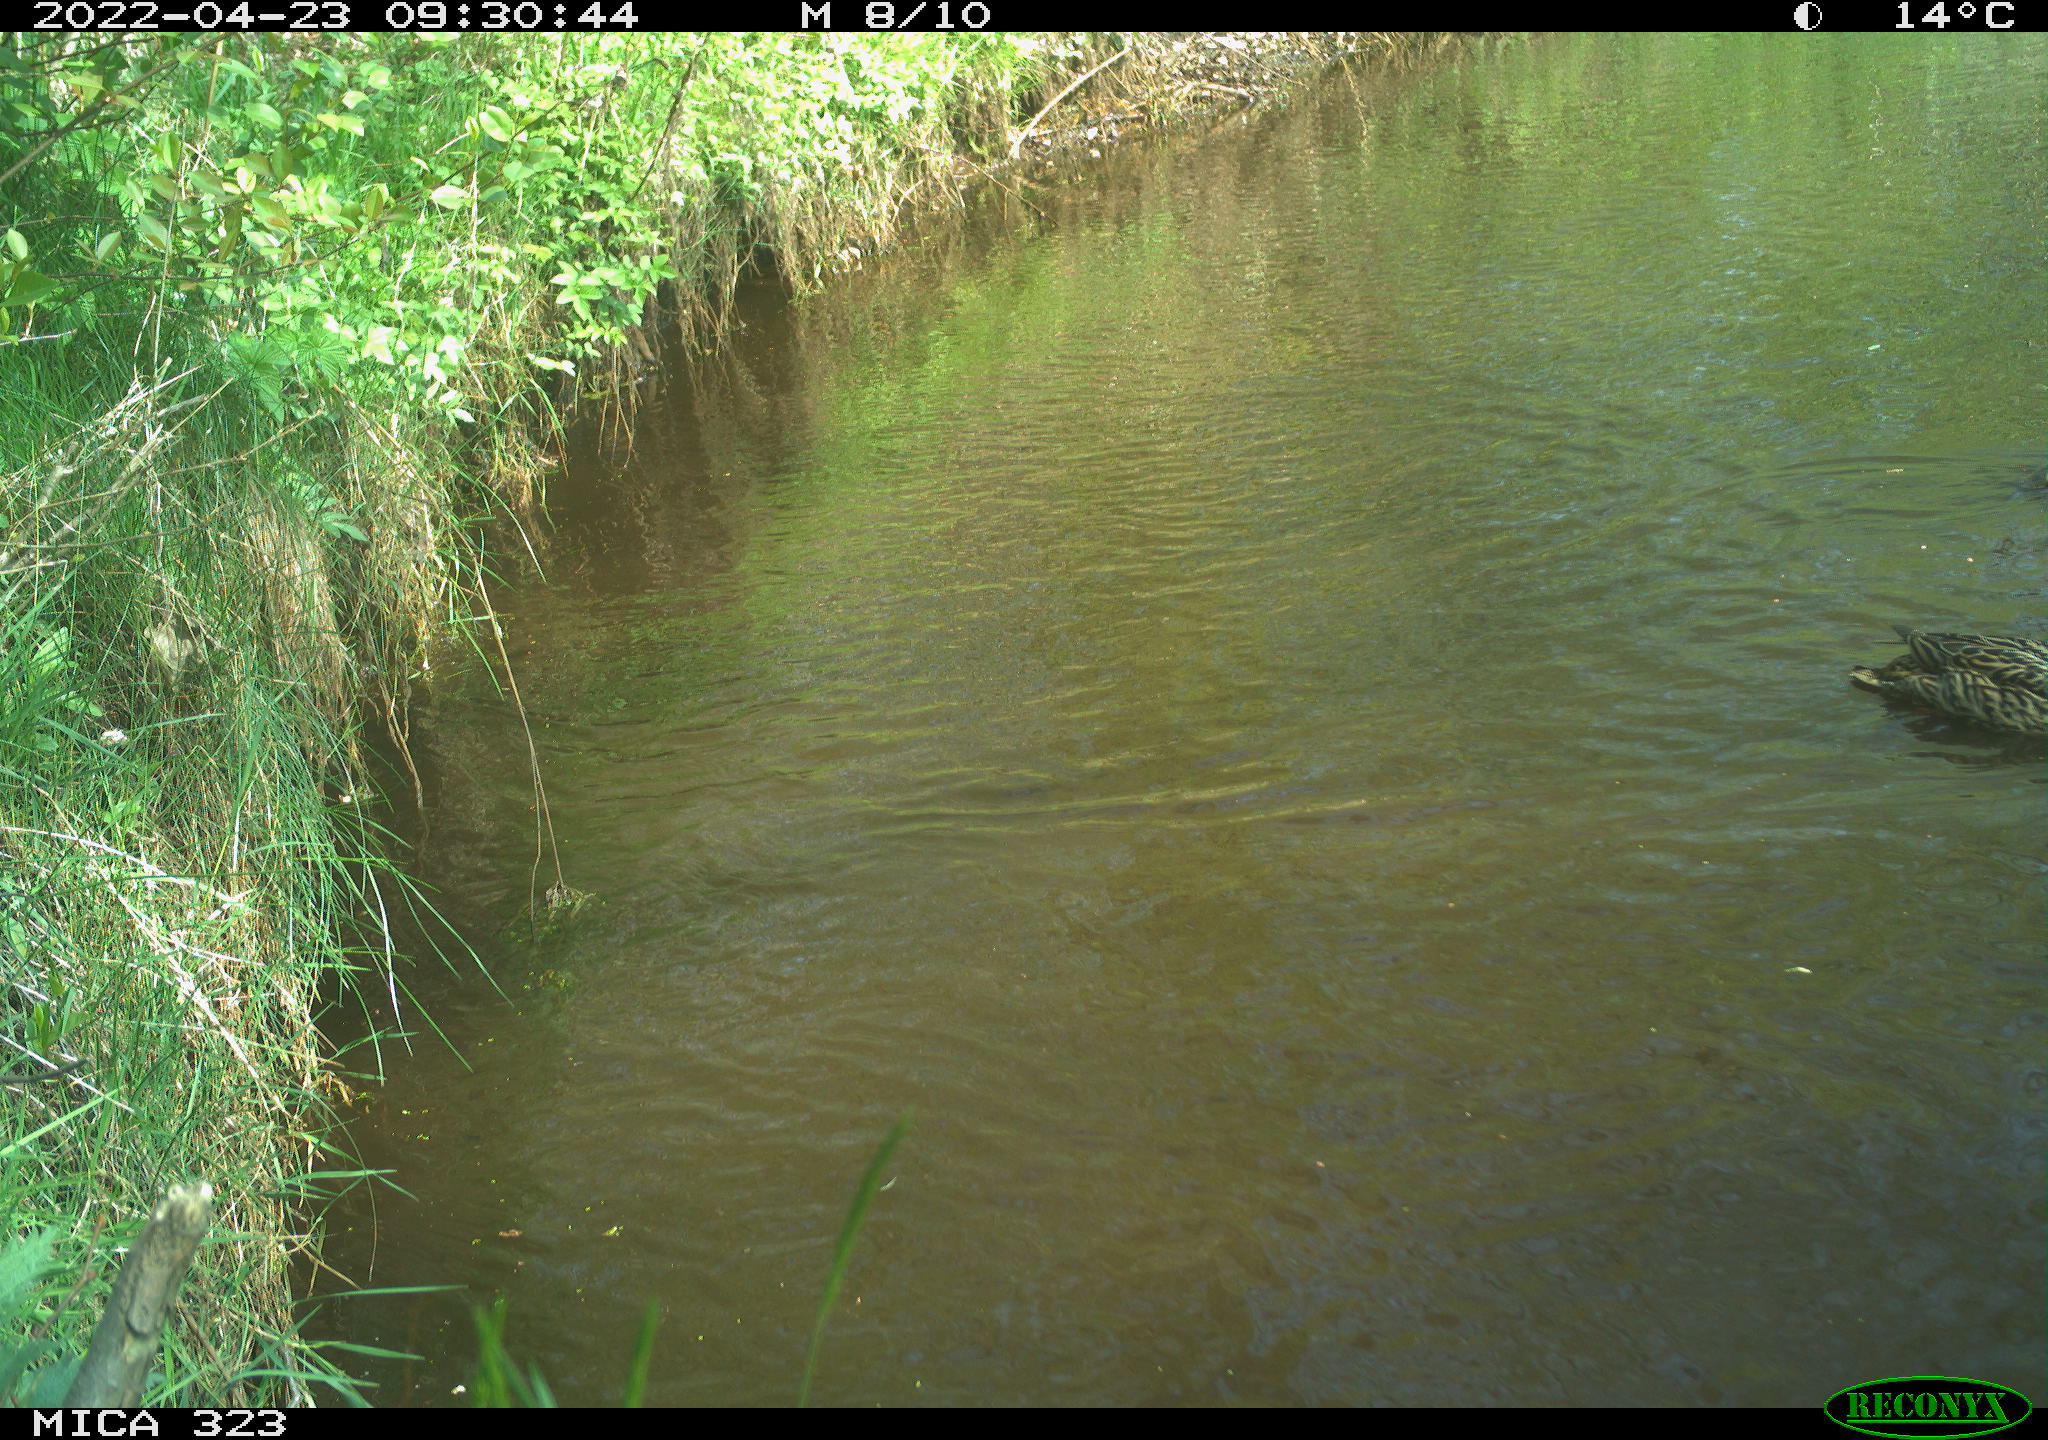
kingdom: Animalia
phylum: Chordata
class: Aves
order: Anseriformes
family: Anatidae
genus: Anas
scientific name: Anas platyrhynchos
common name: Mallard
